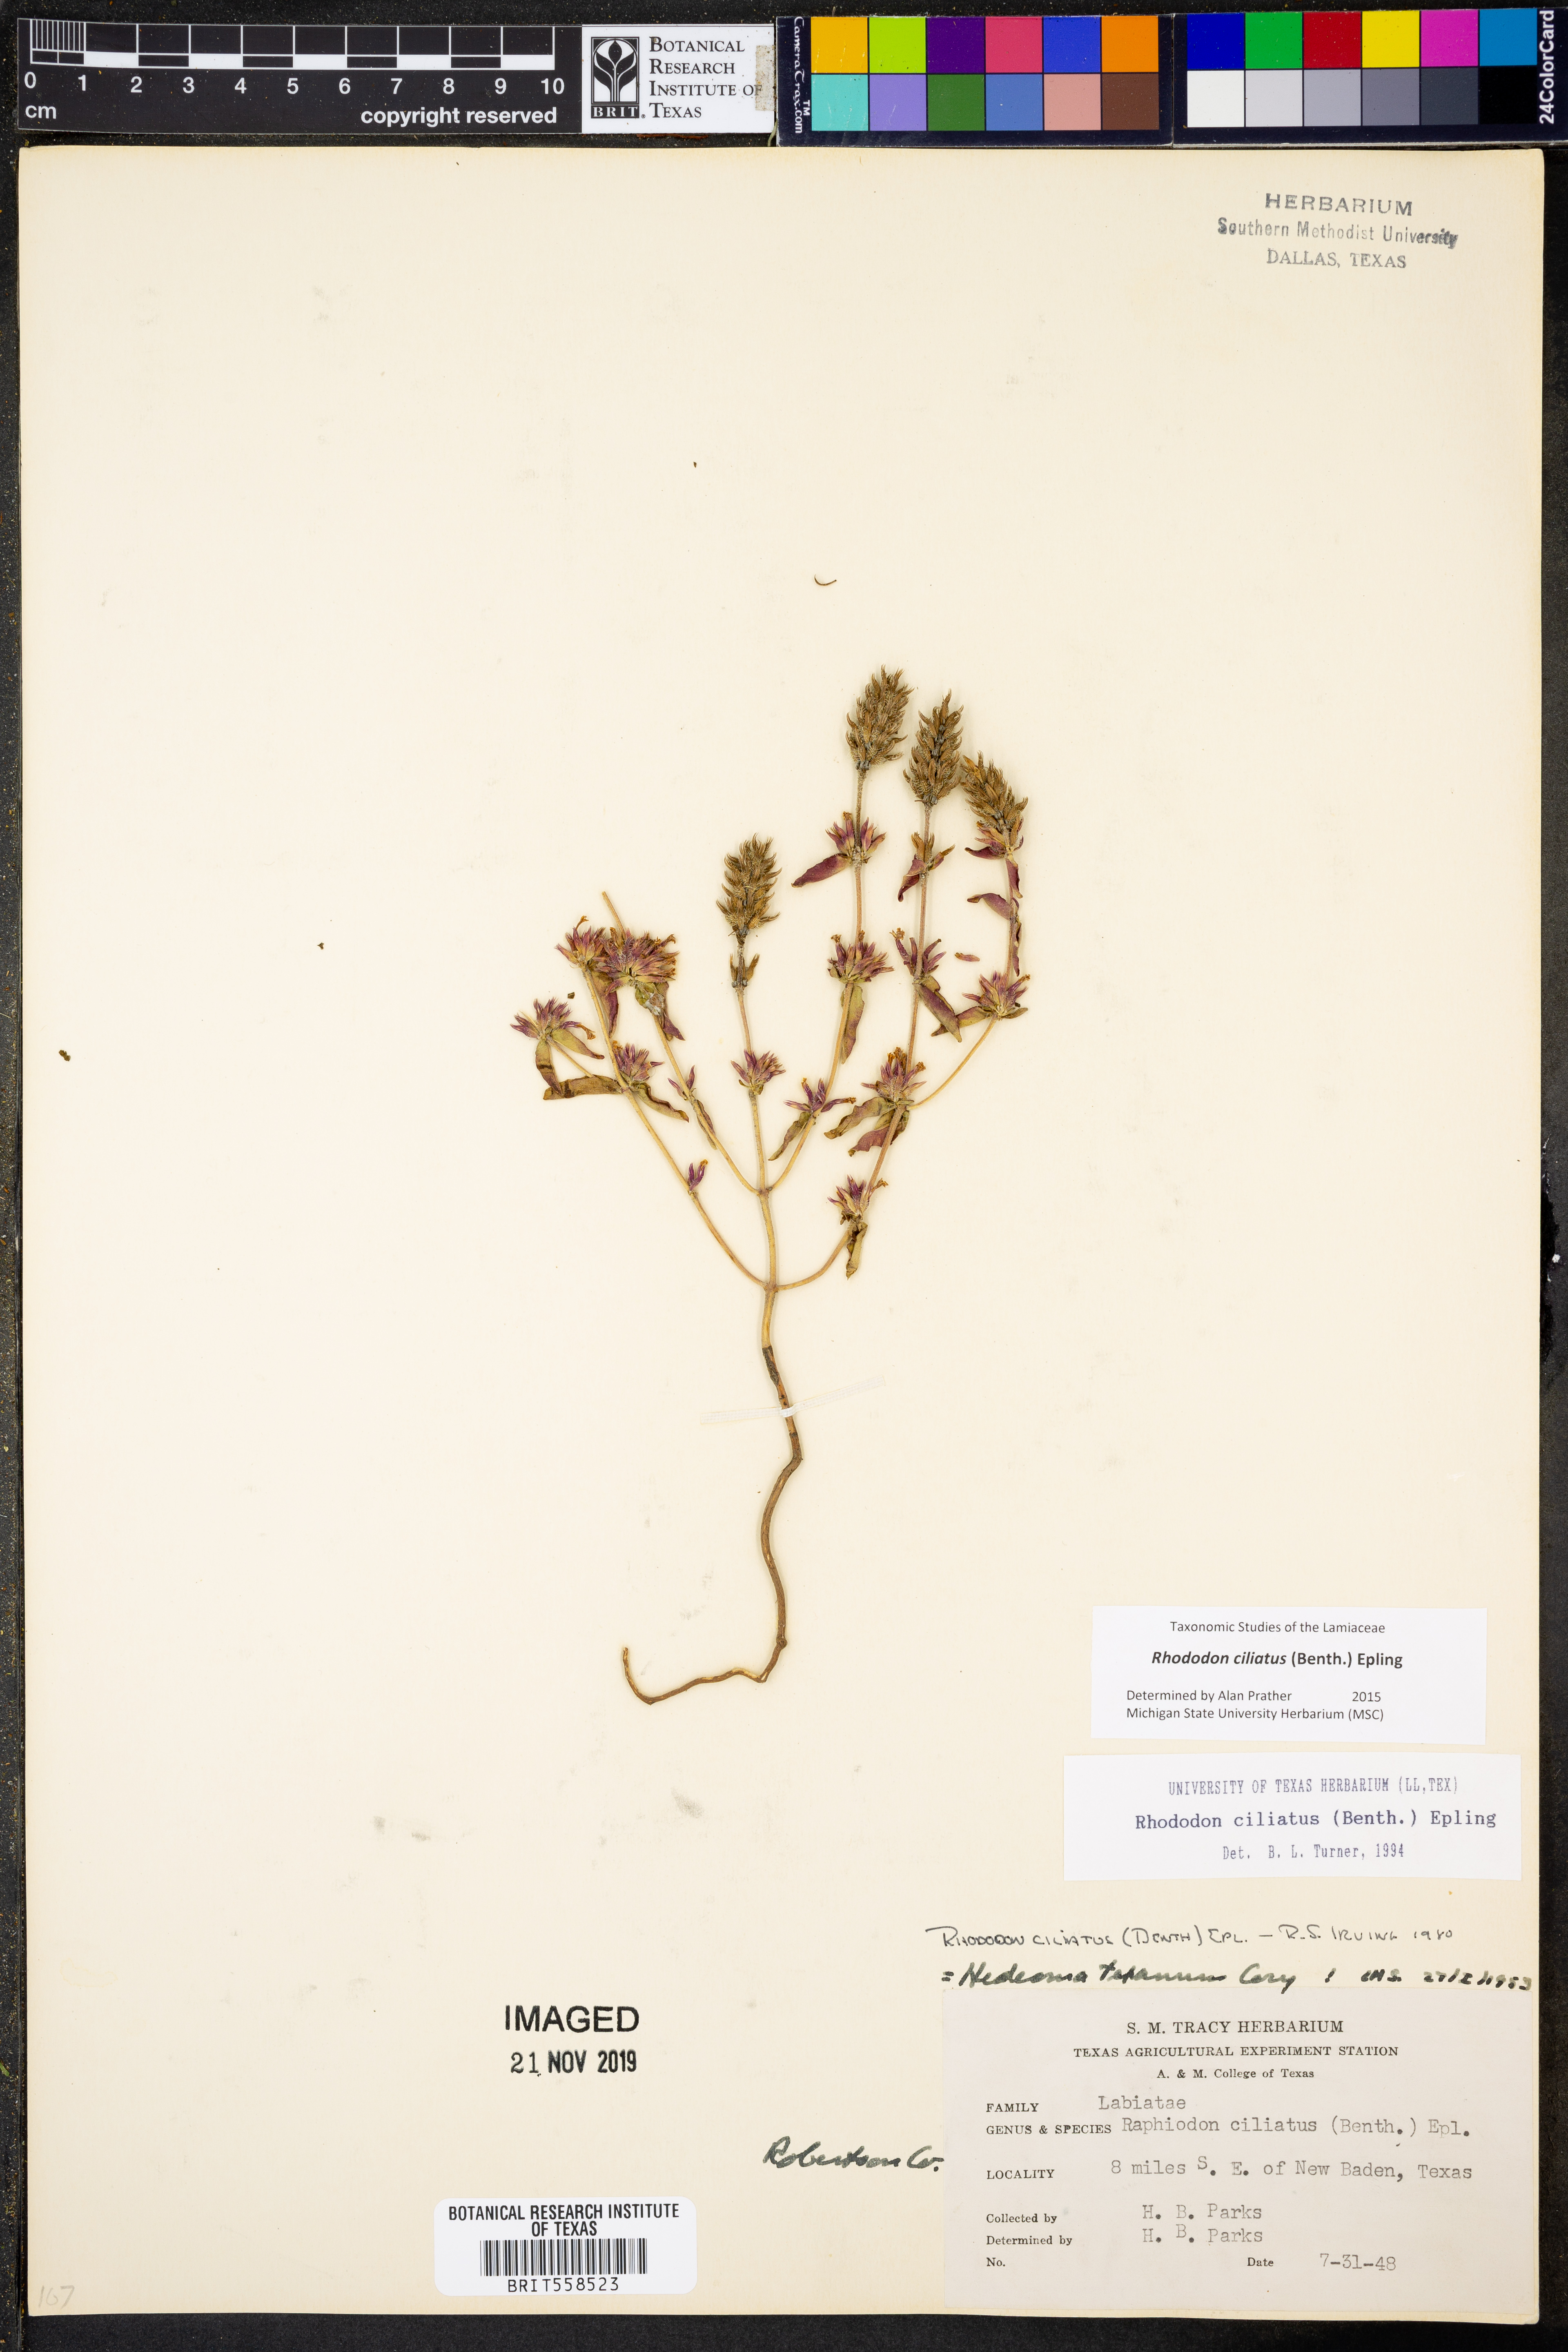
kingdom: Plantae
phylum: Tracheophyta
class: Magnoliopsida
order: Lamiales
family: Lamiaceae
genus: Rhododon
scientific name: Rhododon ciliatus
